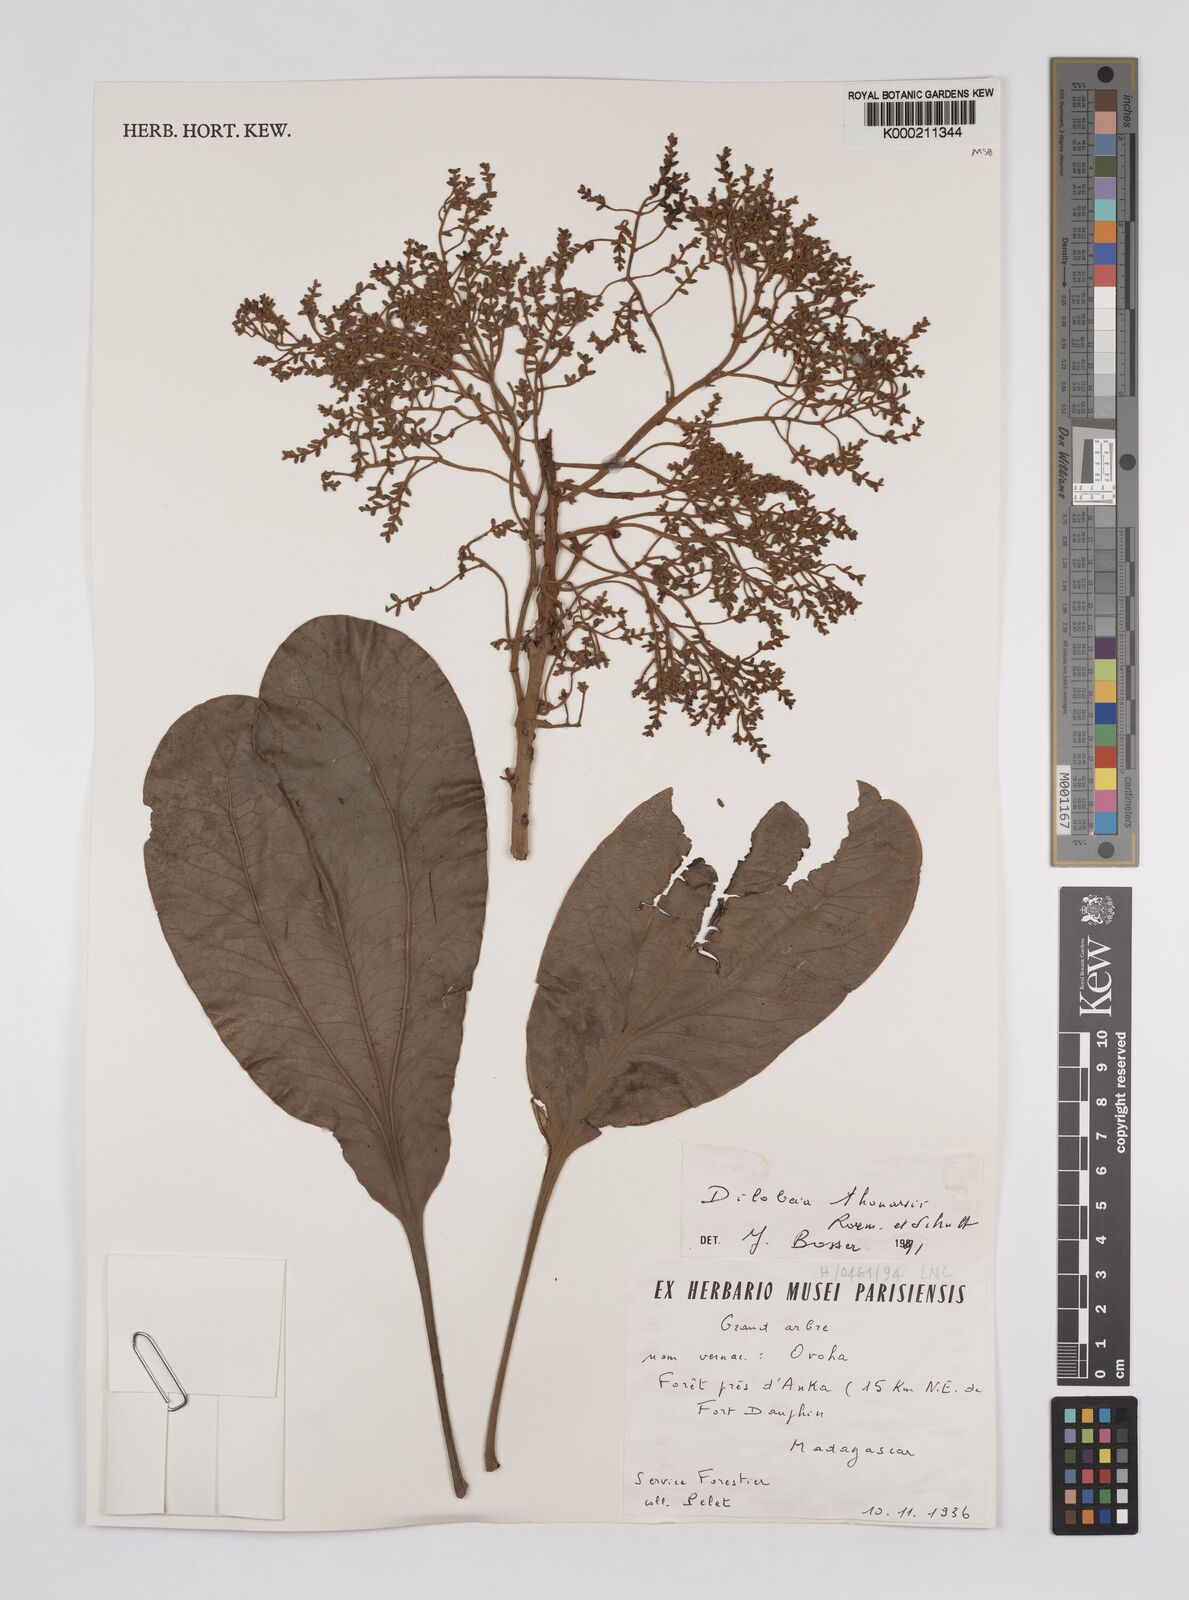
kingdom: Plantae
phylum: Tracheophyta
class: Magnoliopsida
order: Proteales
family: Proteaceae
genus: Dilobeia
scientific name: Dilobeia thouarsii
